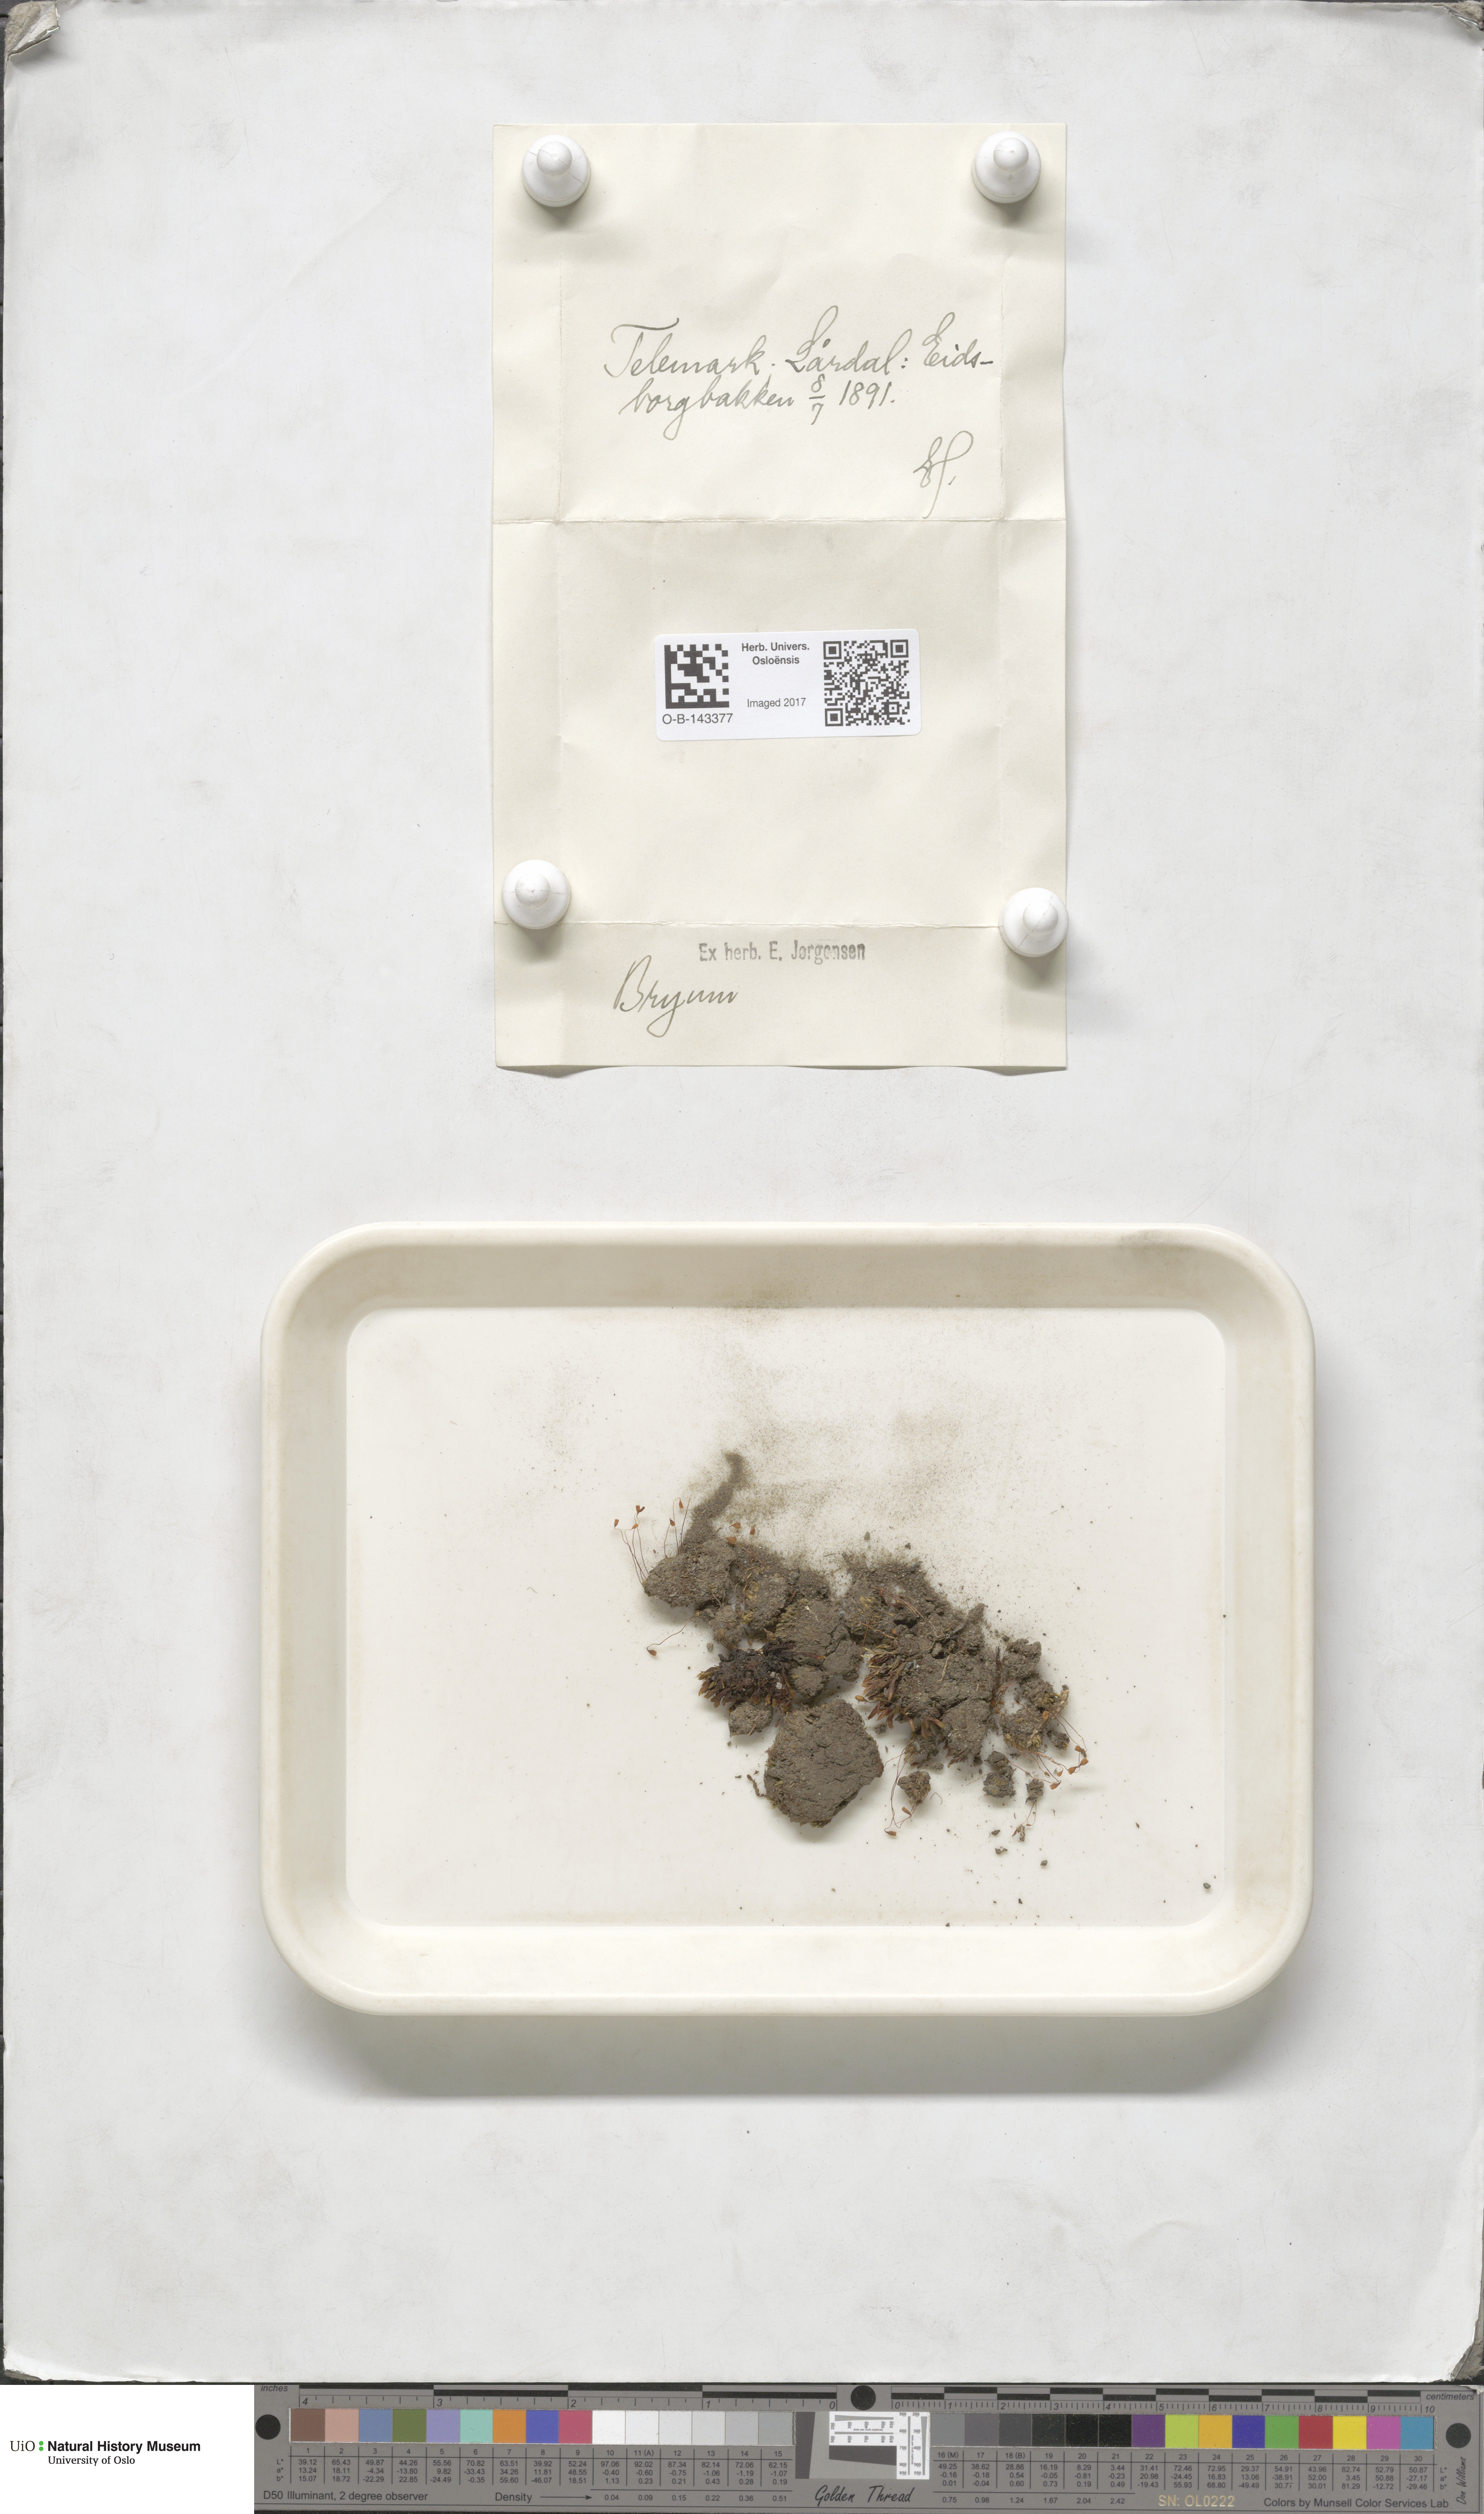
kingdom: Plantae
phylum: Bryophyta
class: Bryopsida
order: Bryales
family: Bryaceae
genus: Bryum
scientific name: Bryum
